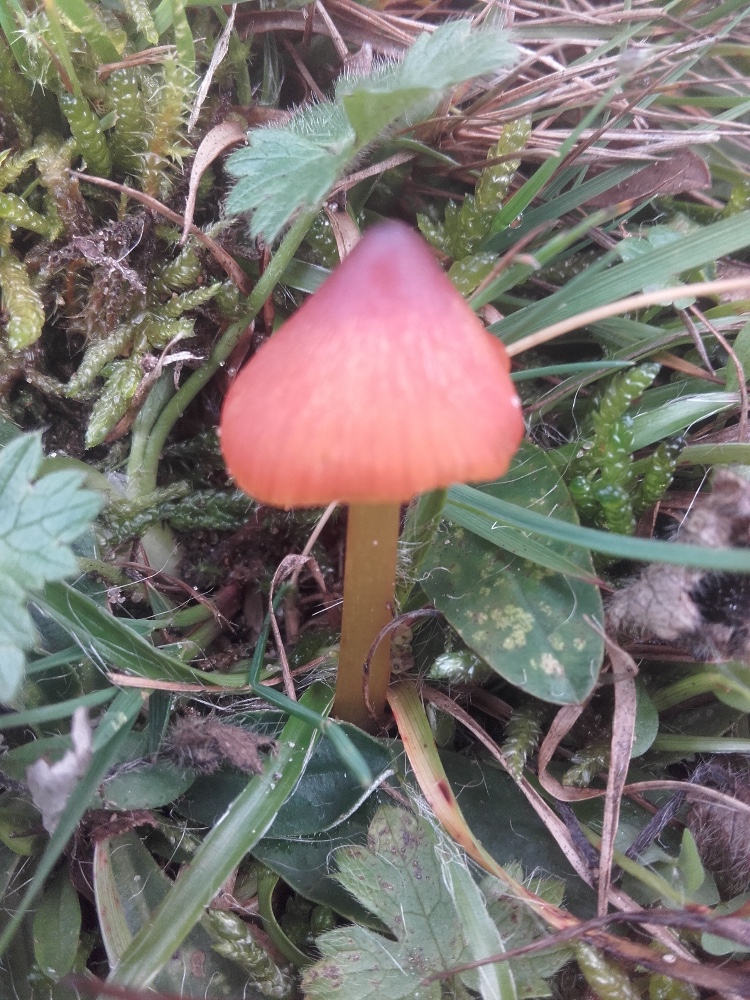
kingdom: Fungi
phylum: Basidiomycota
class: Agaricomycetes
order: Agaricales
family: Hygrophoraceae
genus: Hygrocybe
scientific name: Hygrocybe conica
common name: kegle-vokshat
